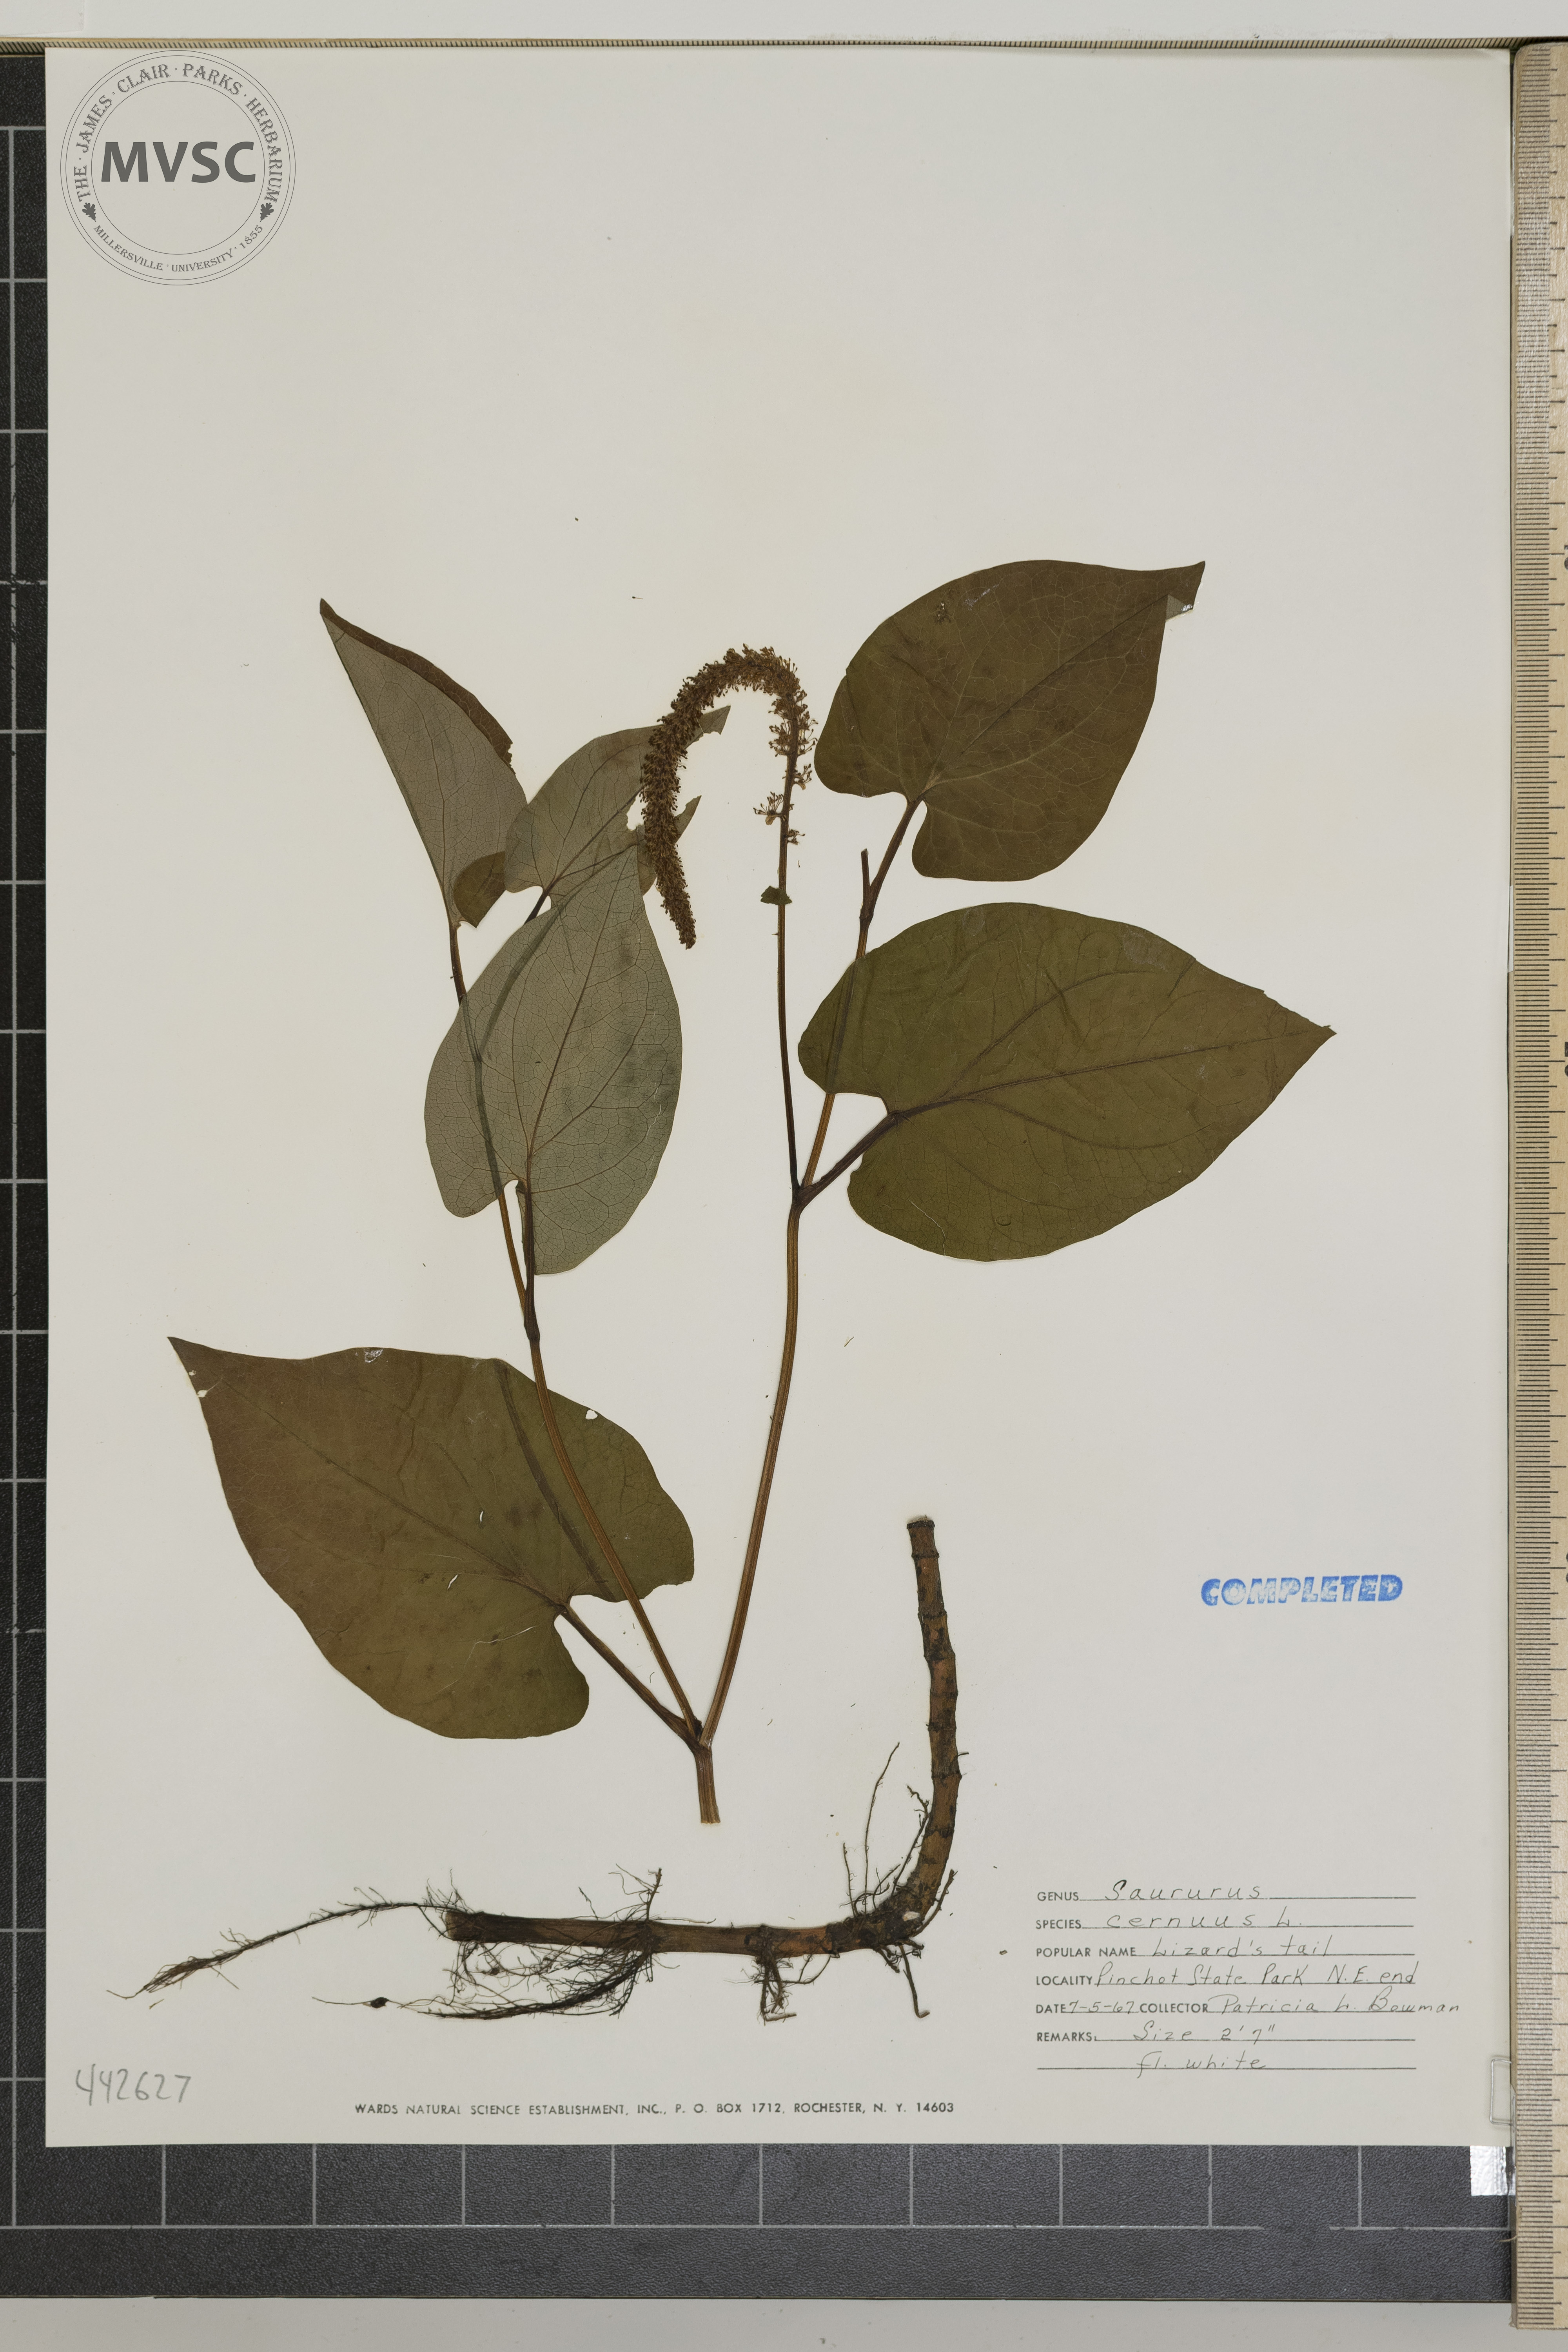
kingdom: Plantae
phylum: Tracheophyta
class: Magnoliopsida
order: Piperales
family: Saururaceae
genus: Saururus
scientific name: Saururus cernuus
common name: Lizard's tail
